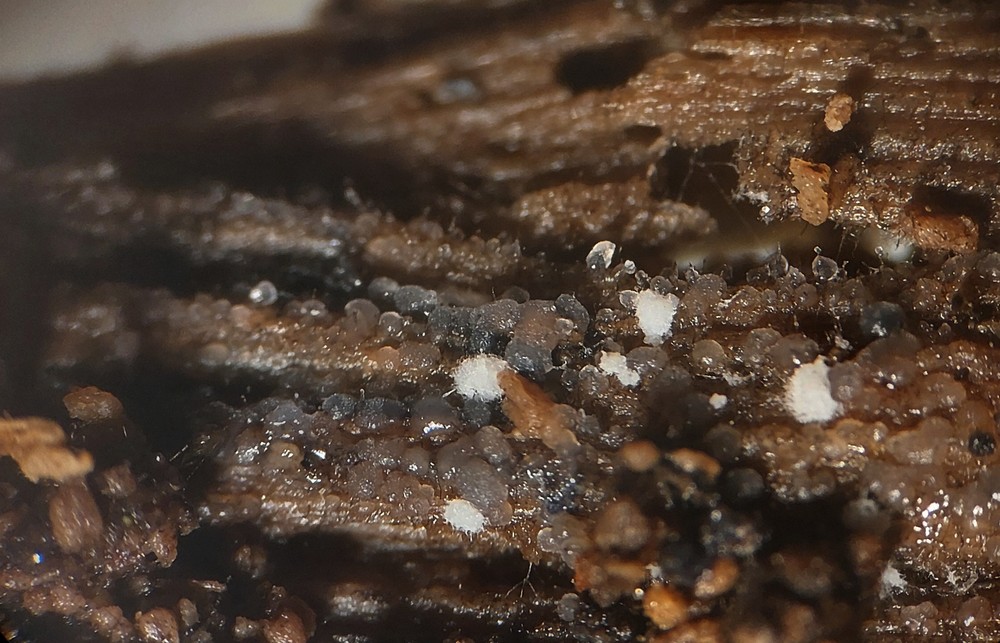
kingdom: Fungi
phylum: Basidiomycota
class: Agaricomycetes
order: Auriculariales
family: Hyaloriaceae
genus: Myxarium
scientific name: Myxarium minutissimum
